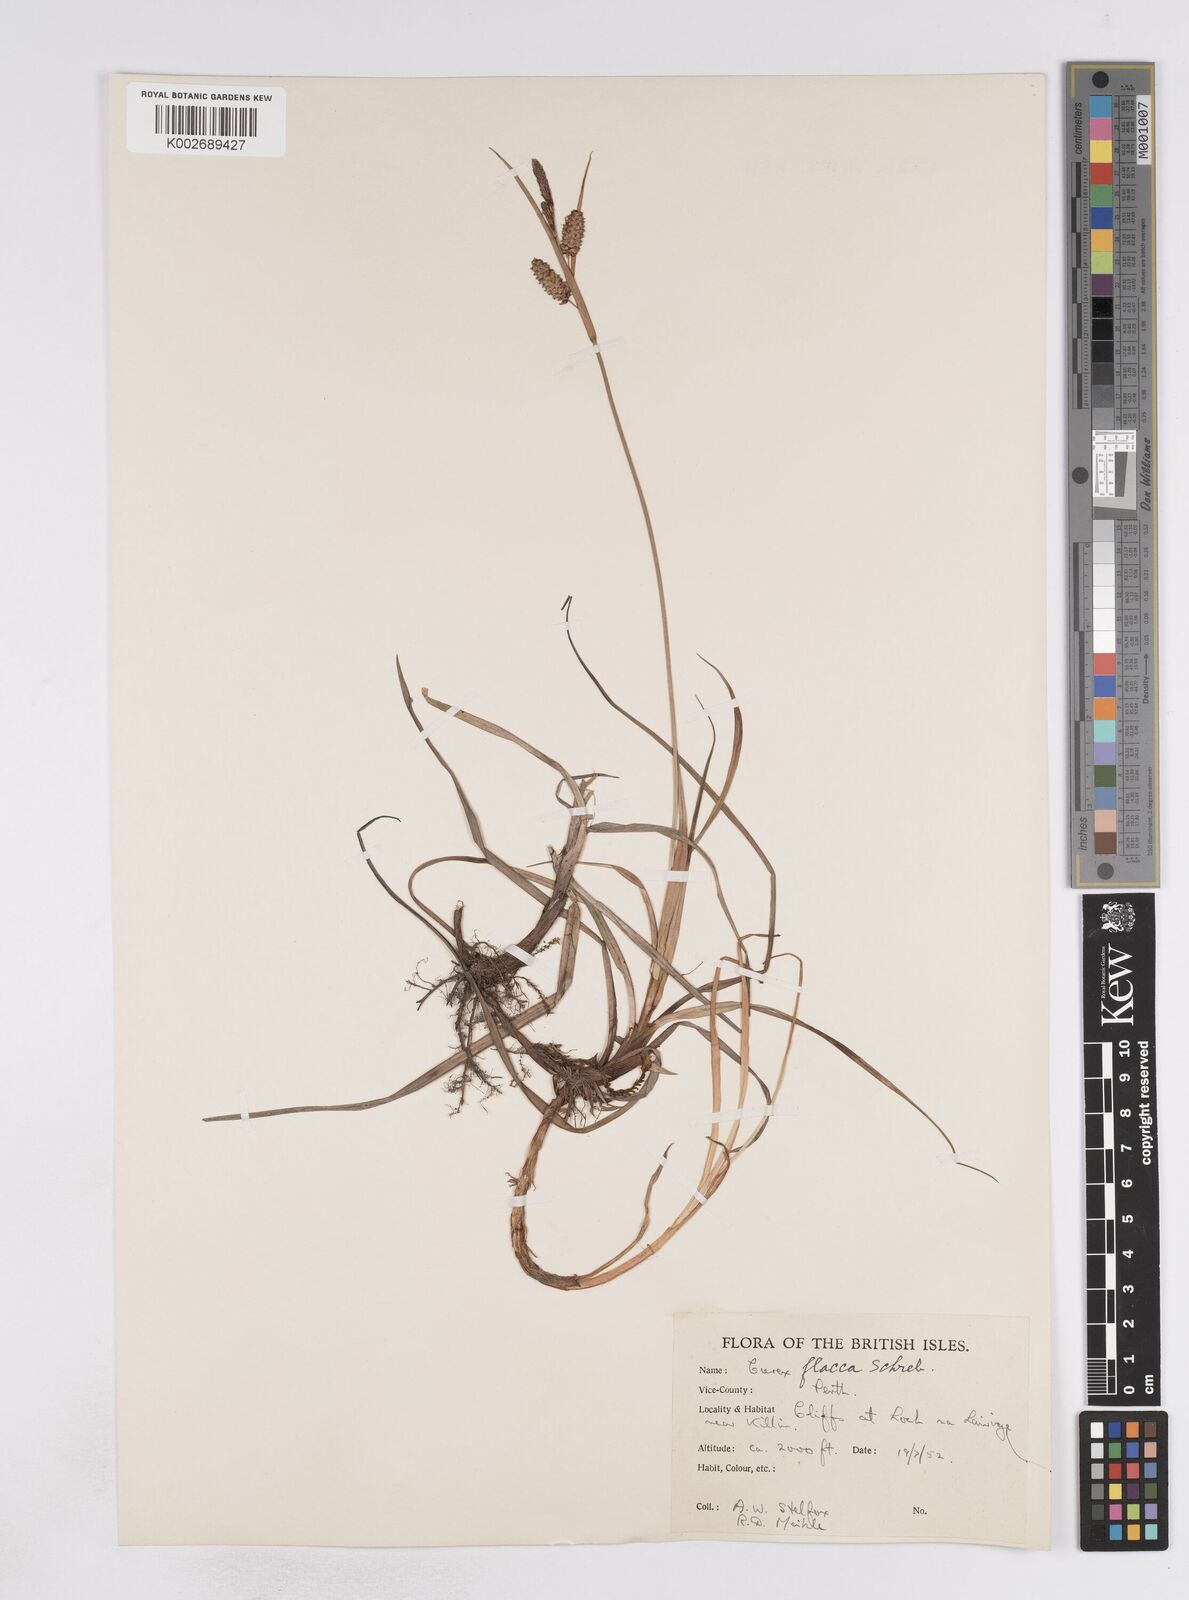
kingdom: Plantae
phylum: Tracheophyta
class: Liliopsida
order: Poales
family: Cyperaceae
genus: Carex
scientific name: Carex flacca
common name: Glaucous sedge
